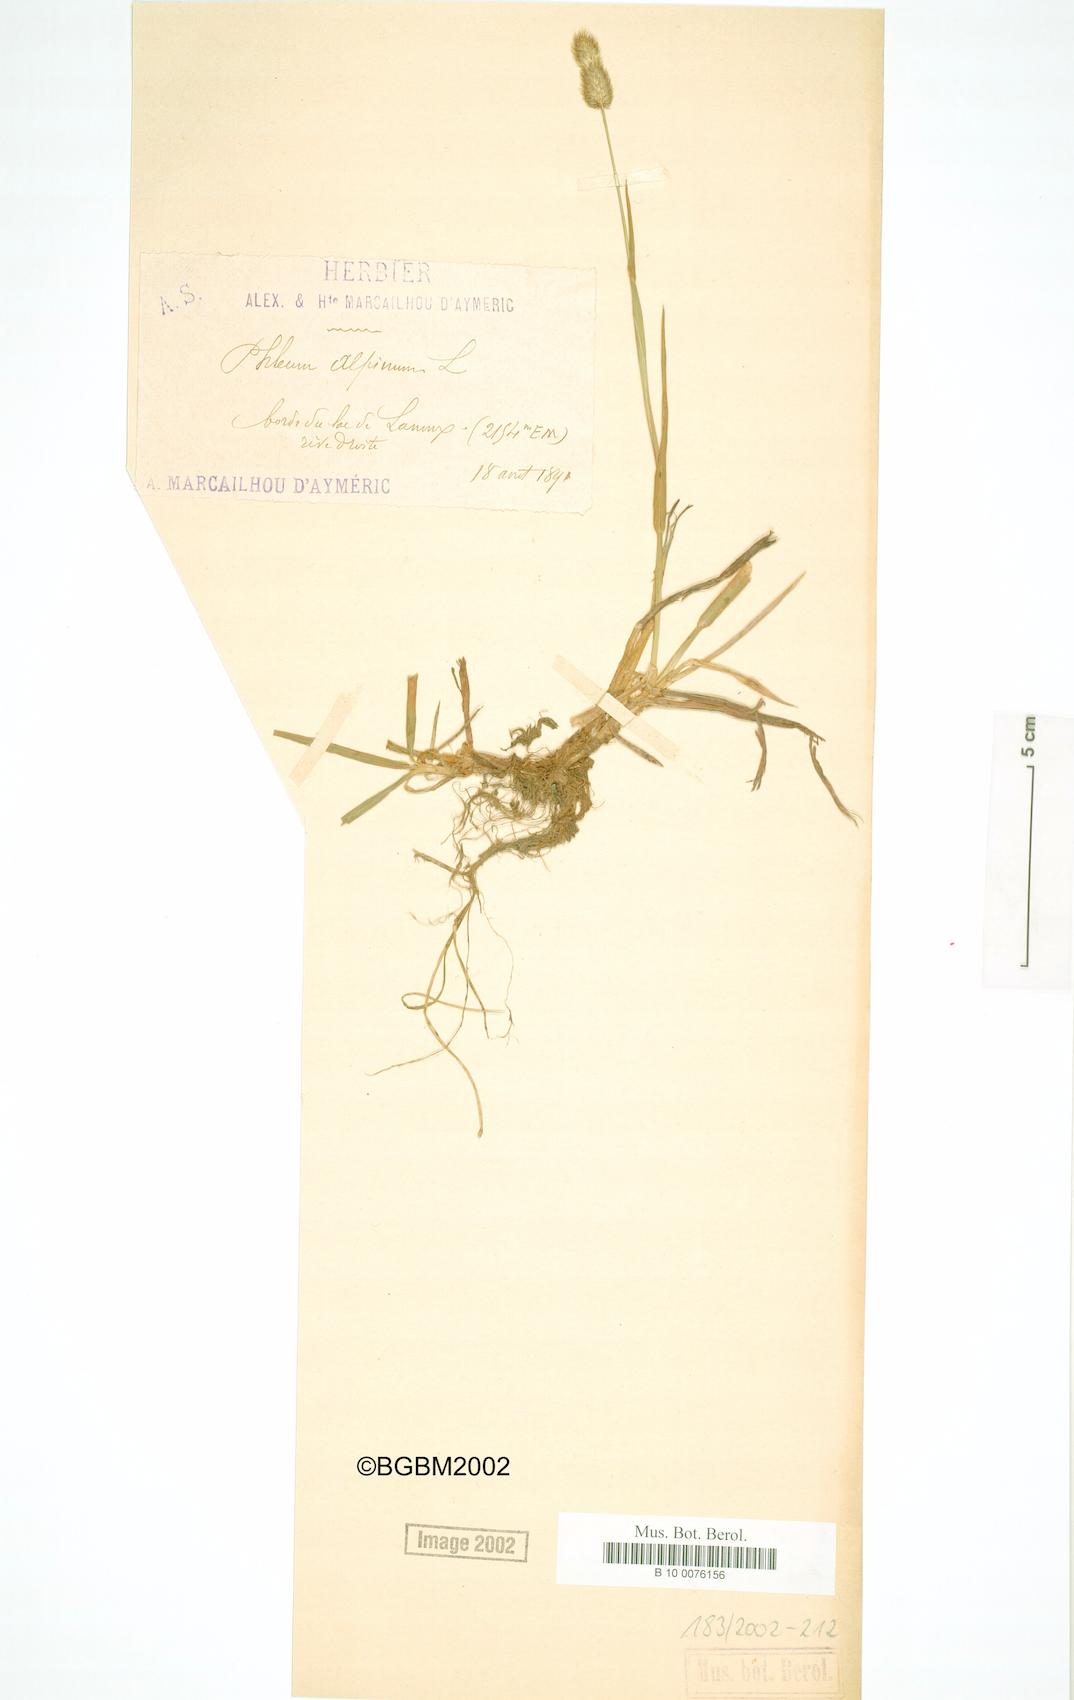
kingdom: Plantae
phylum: Tracheophyta
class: Liliopsida
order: Poales
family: Poaceae
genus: Phleum
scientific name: Phleum alpinum
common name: Alpine cat's-tail
